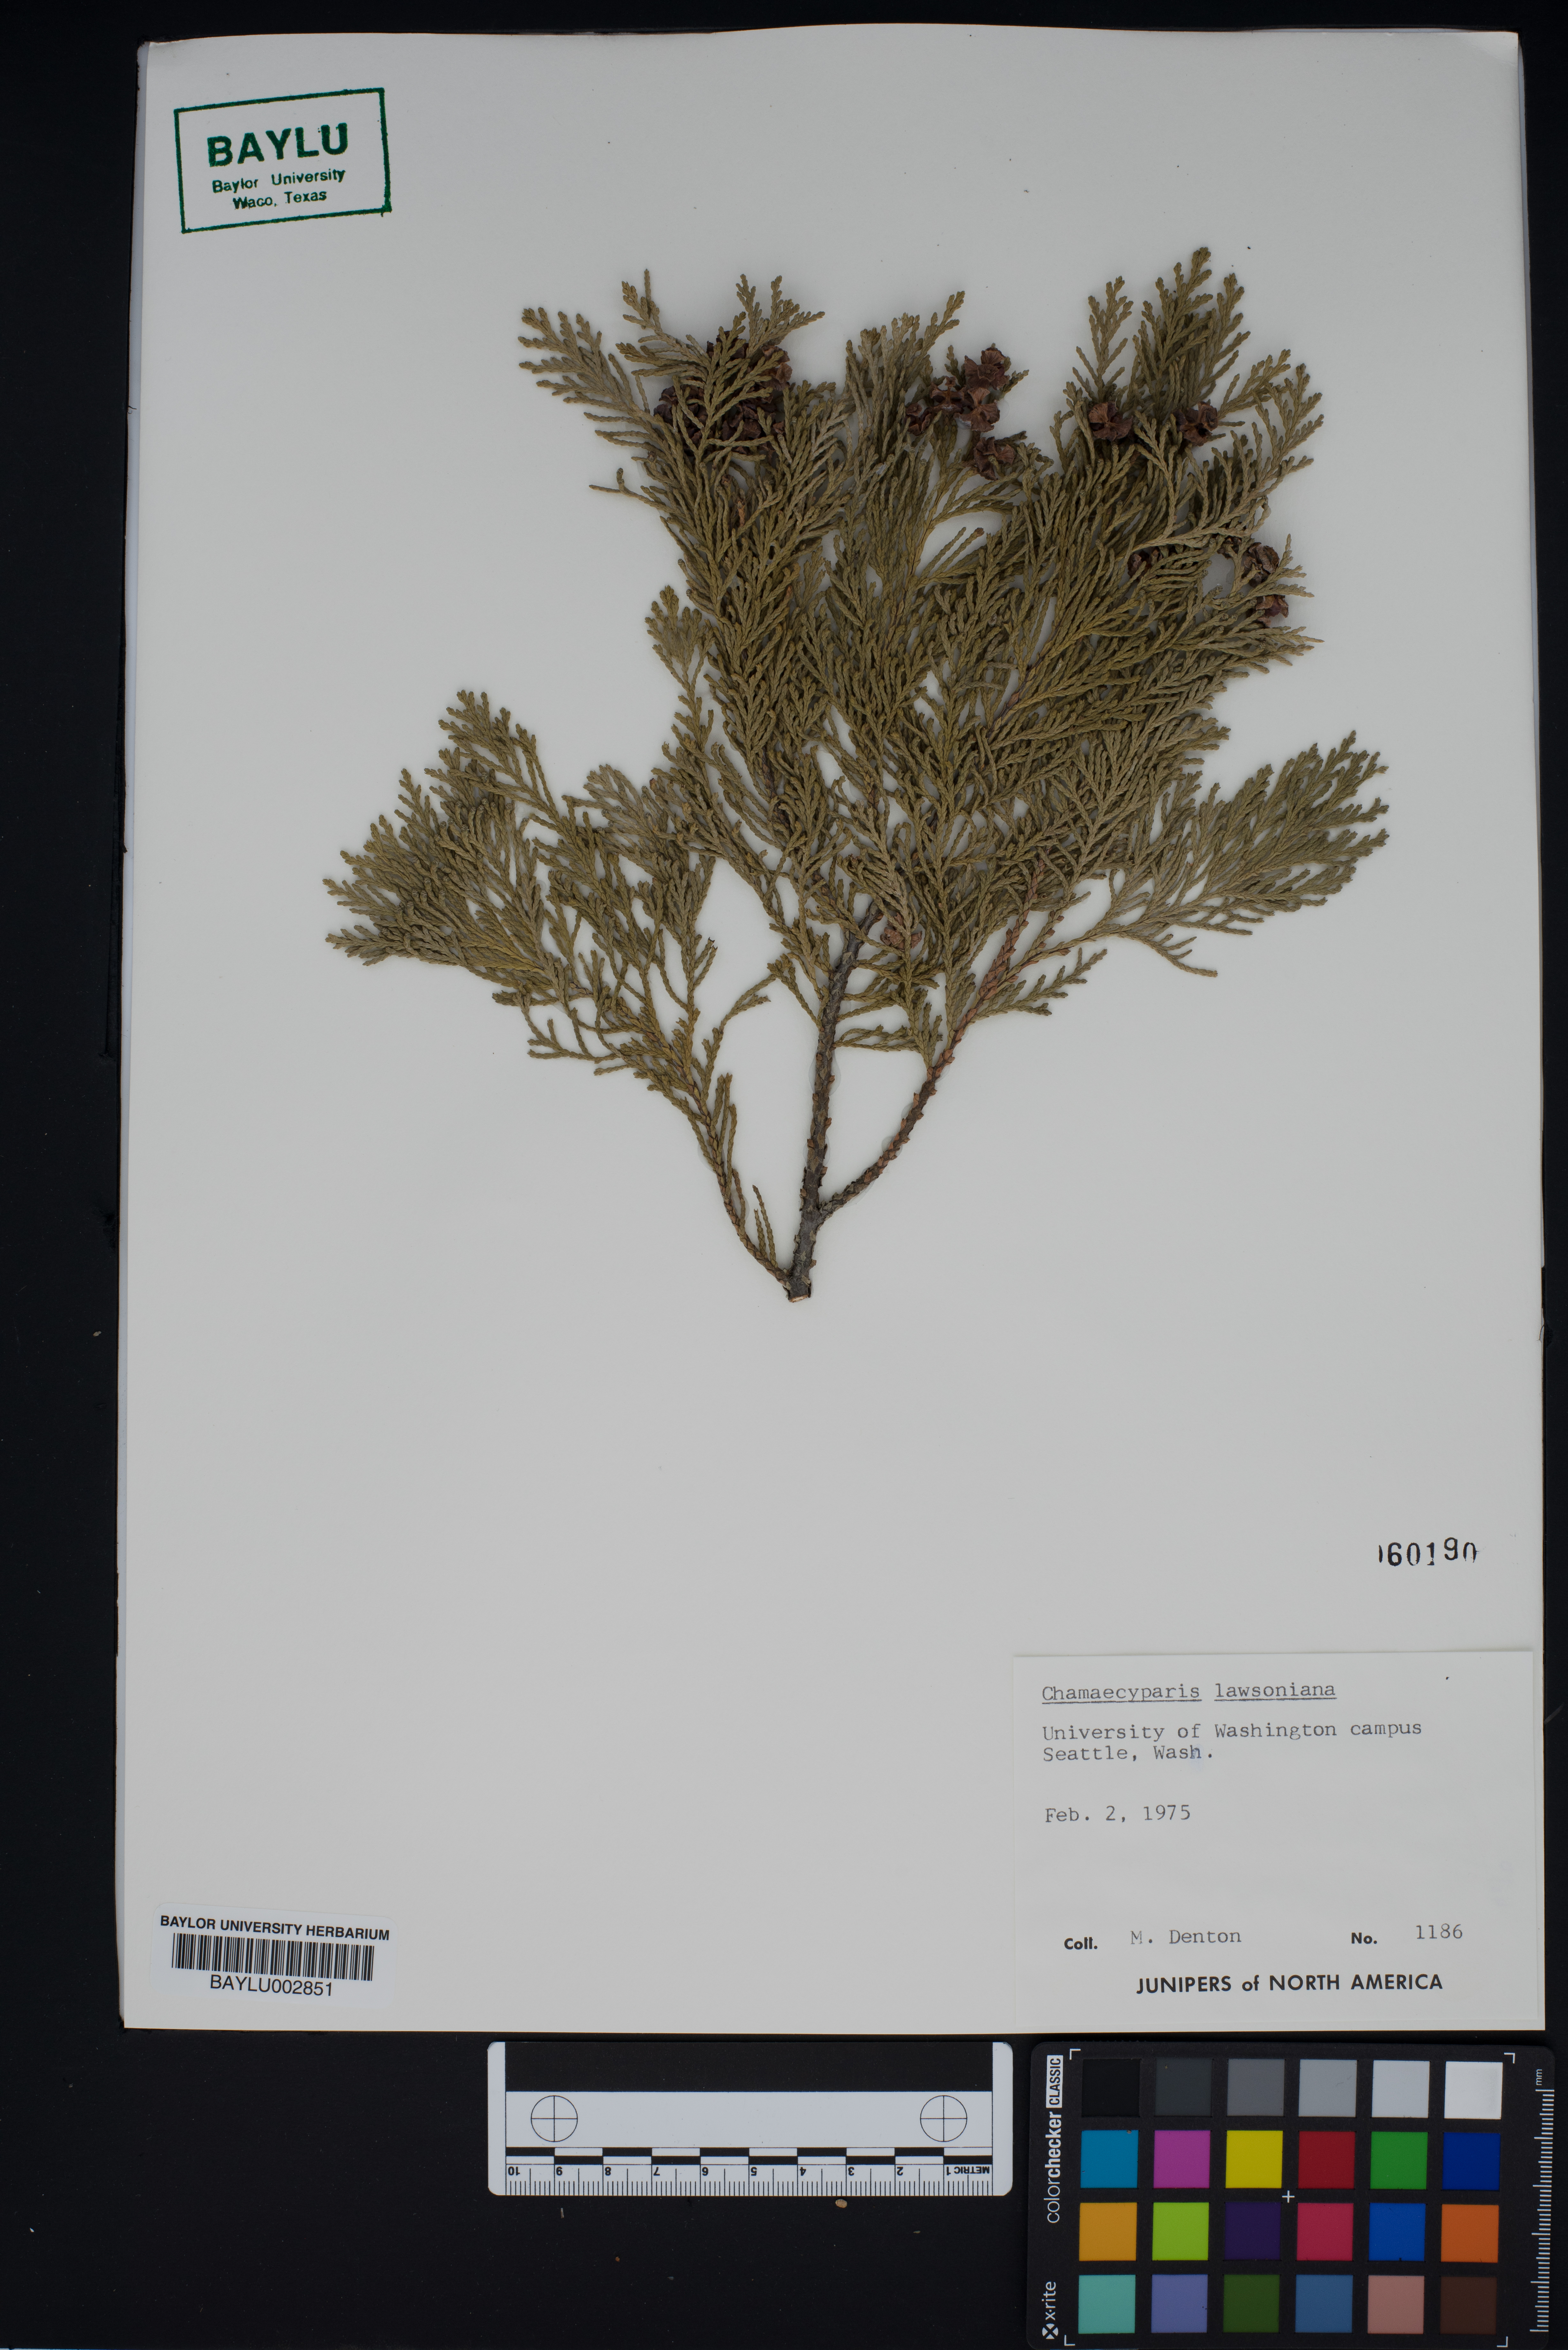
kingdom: Plantae
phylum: Tracheophyta
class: Pinopsida
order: Pinales
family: Cupressaceae
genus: Chamaecyparis
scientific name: Chamaecyparis lawsoniana
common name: Lawson's cypress
